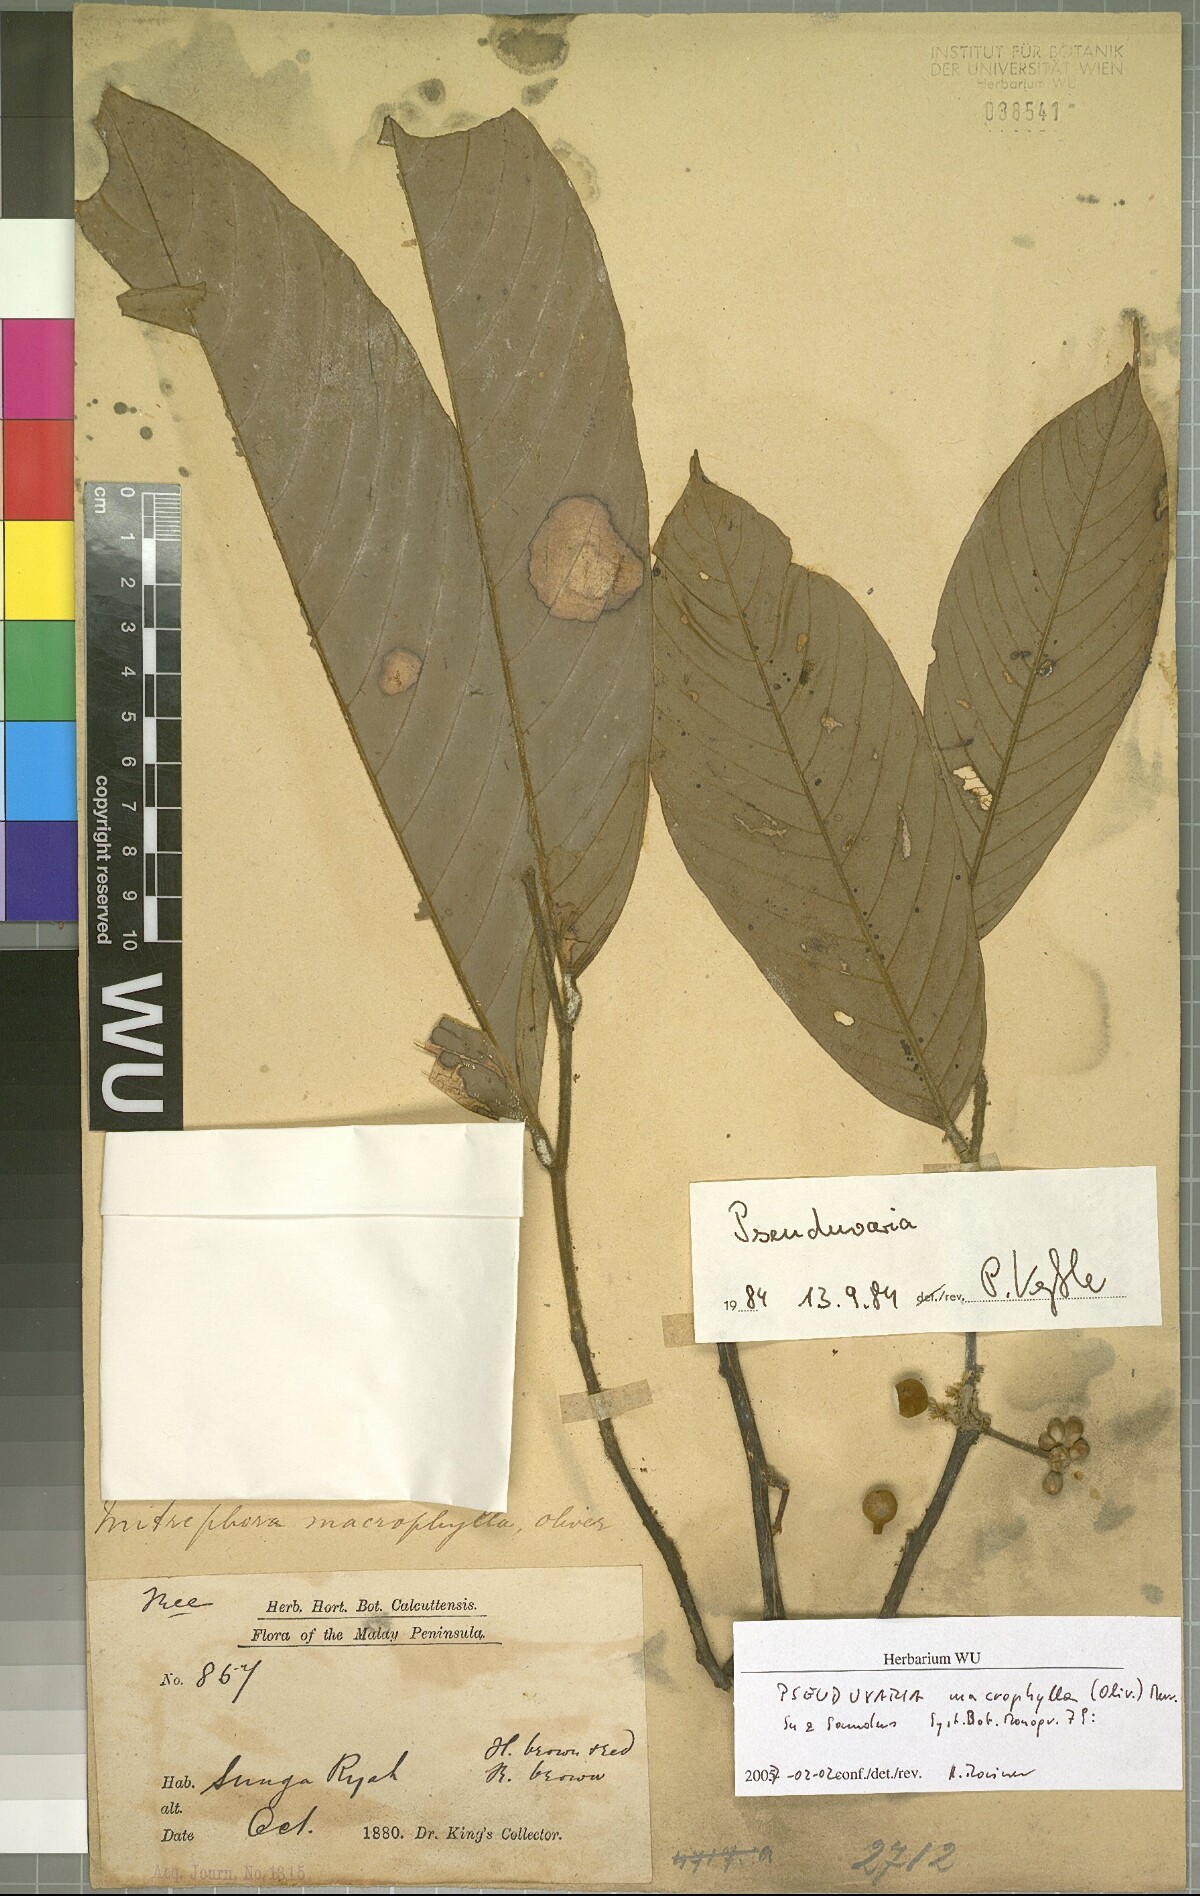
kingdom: Plantae
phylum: Tracheophyta
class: Magnoliopsida
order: Magnoliales
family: Annonaceae
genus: Pseuduvaria
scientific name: Pseuduvaria macrophylla
